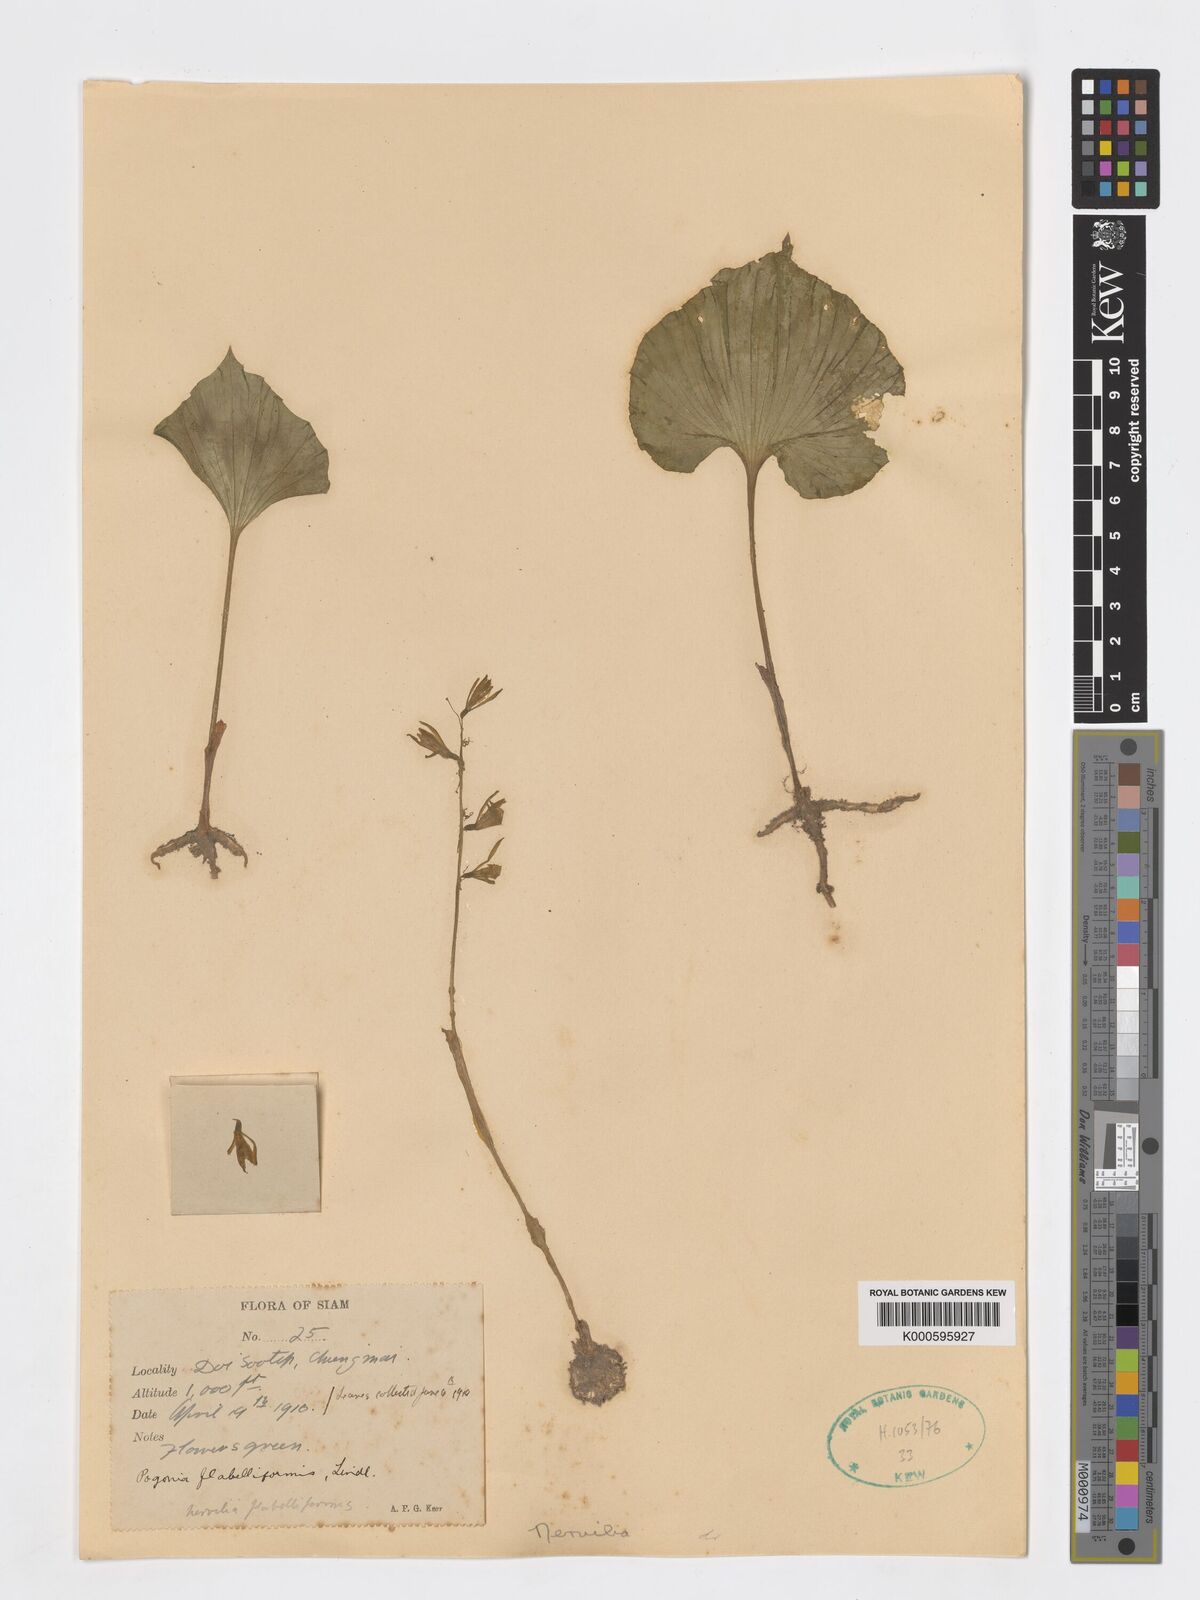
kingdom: Plantae
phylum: Tracheophyta
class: Liliopsida
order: Asparagales
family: Orchidaceae
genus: Nervilia
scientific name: Nervilia concolor
